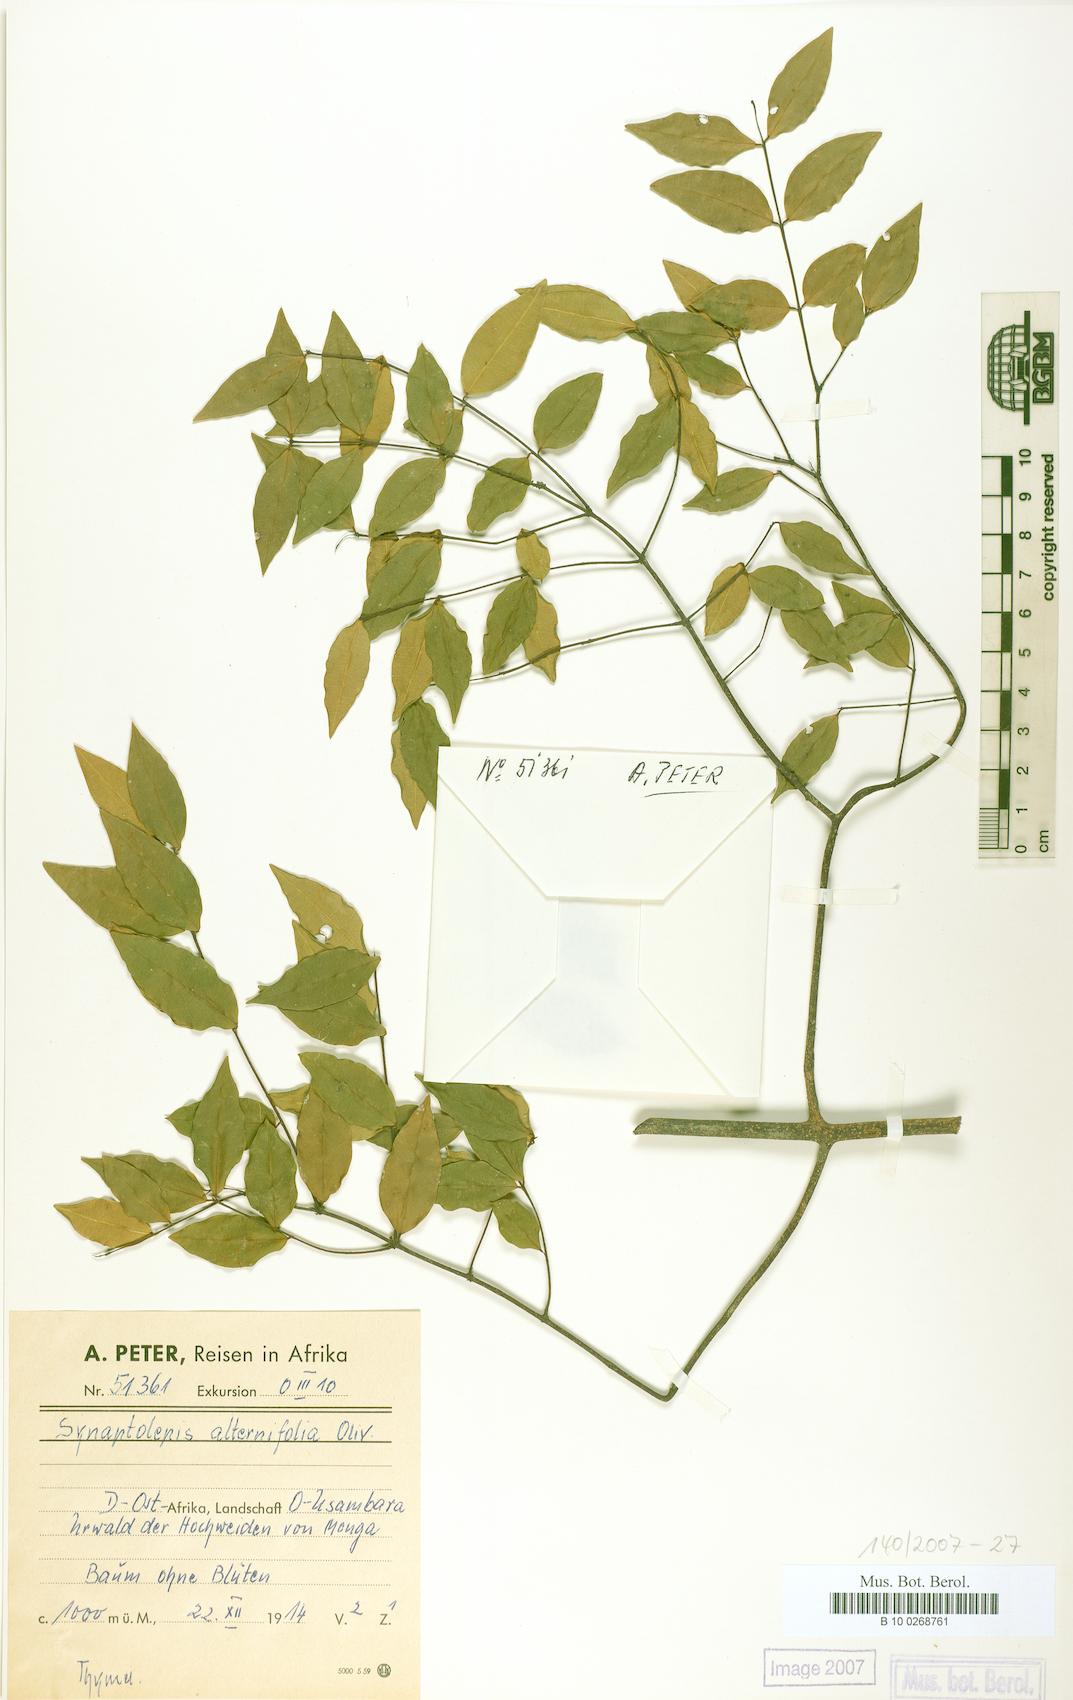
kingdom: Plantae
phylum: Tracheophyta
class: Magnoliopsida
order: Malvales
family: Thymelaeaceae
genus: Synaptolepis
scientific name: Synaptolepis alternifolia
